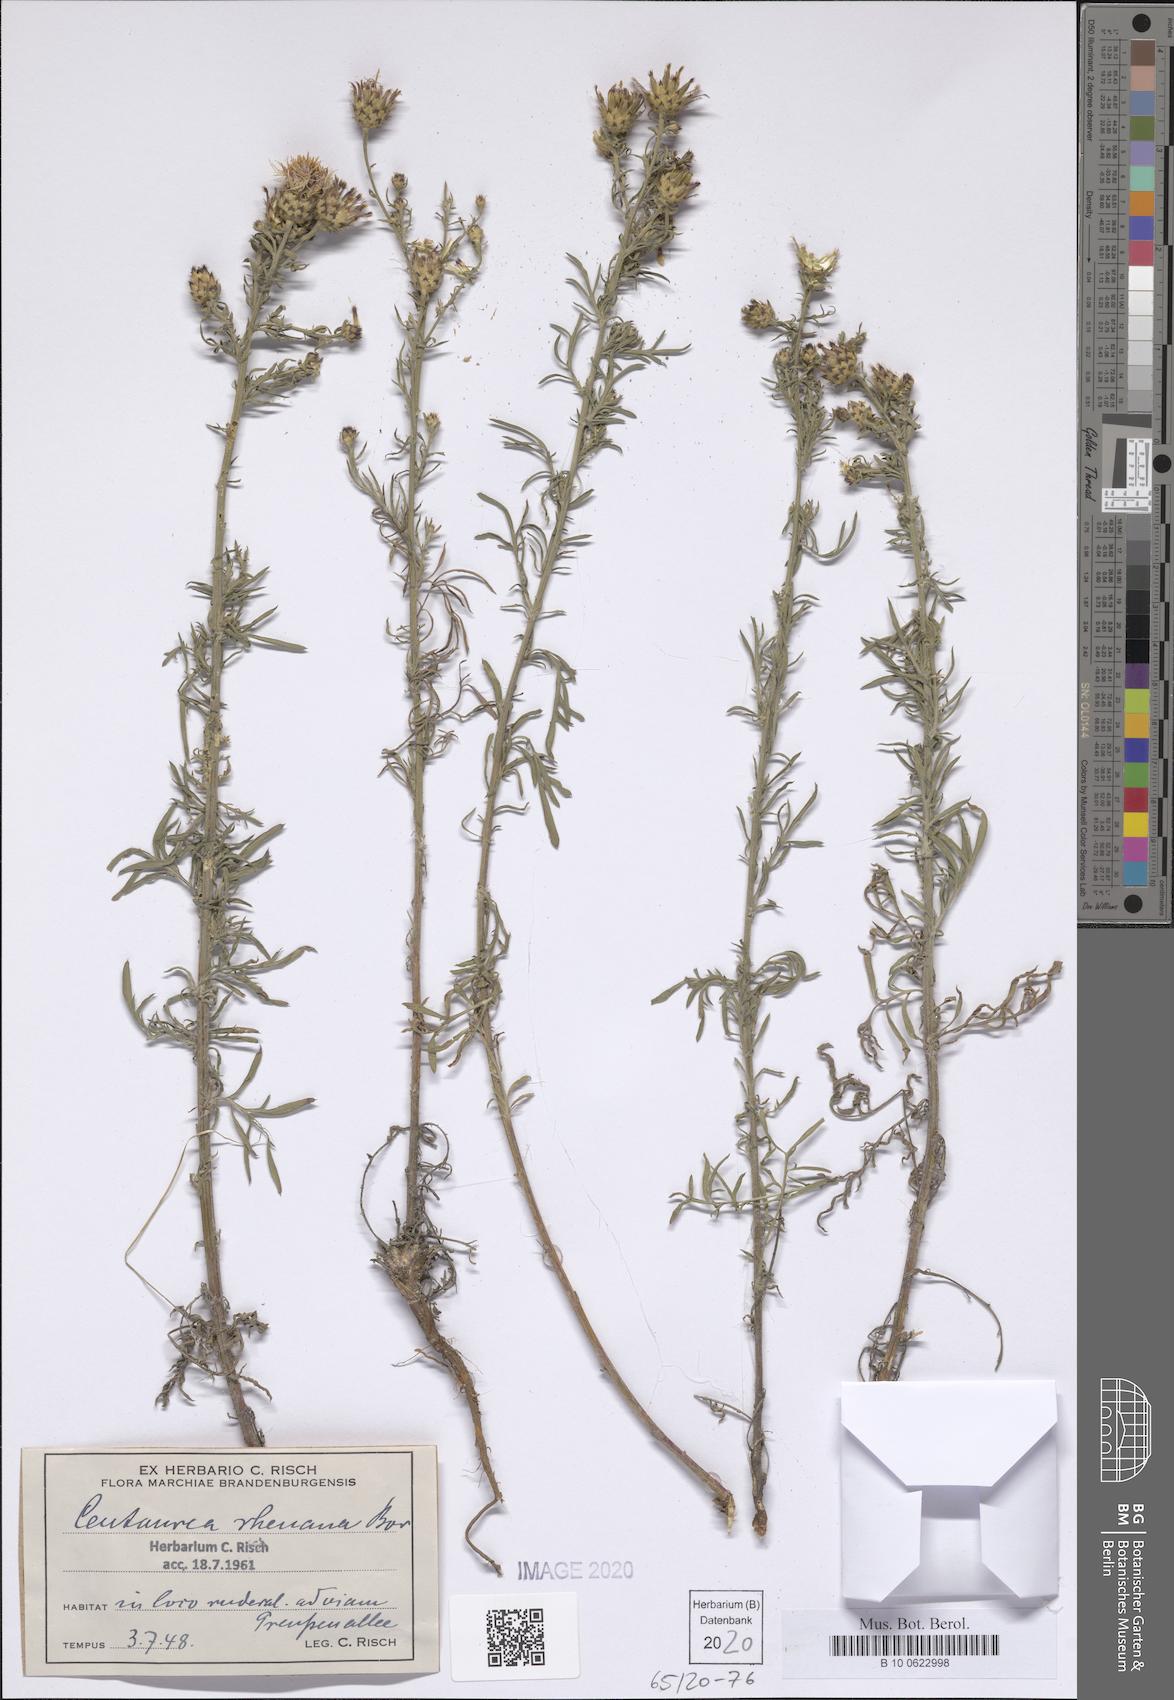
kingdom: Plantae
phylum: Tracheophyta
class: Magnoliopsida
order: Asterales
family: Asteraceae
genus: Centaurea
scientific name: Centaurea stoebe
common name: Spotted knapweed
